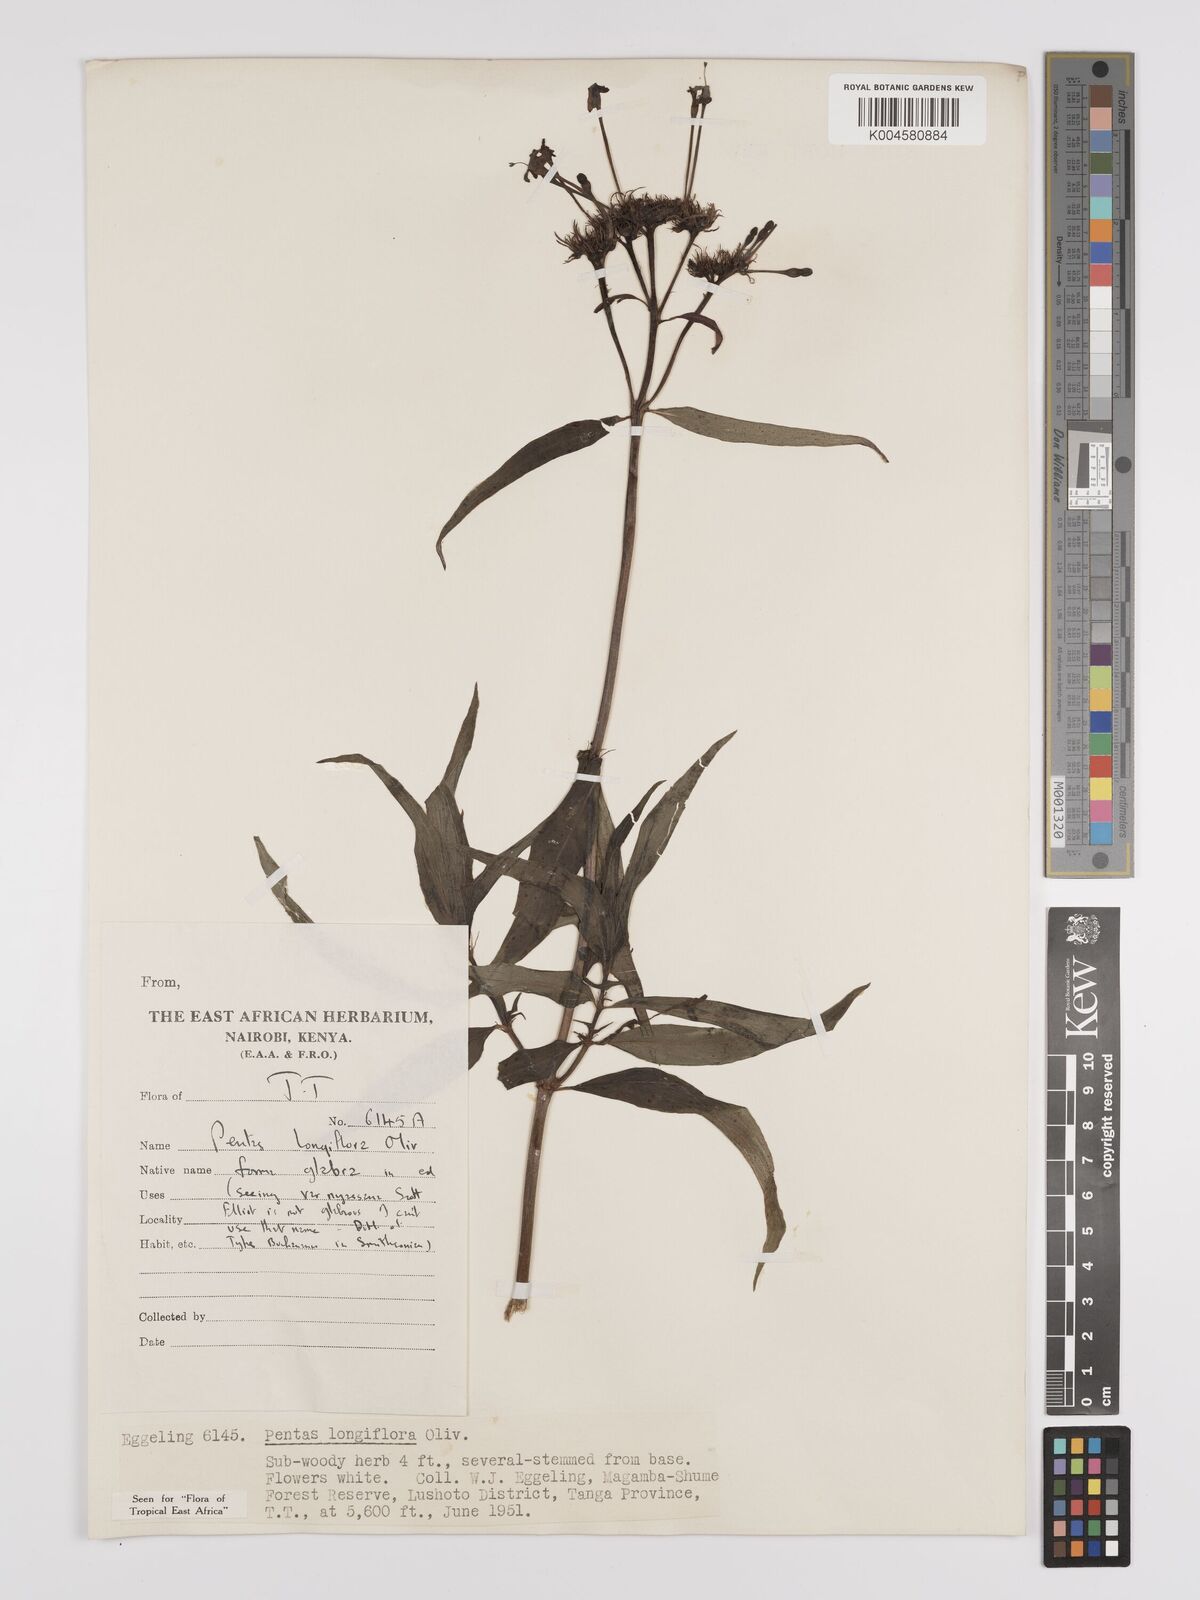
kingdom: Plantae
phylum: Tracheophyta
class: Magnoliopsida
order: Gentianales
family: Rubiaceae
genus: Dolichopentas
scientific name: Dolichopentas longiflora
